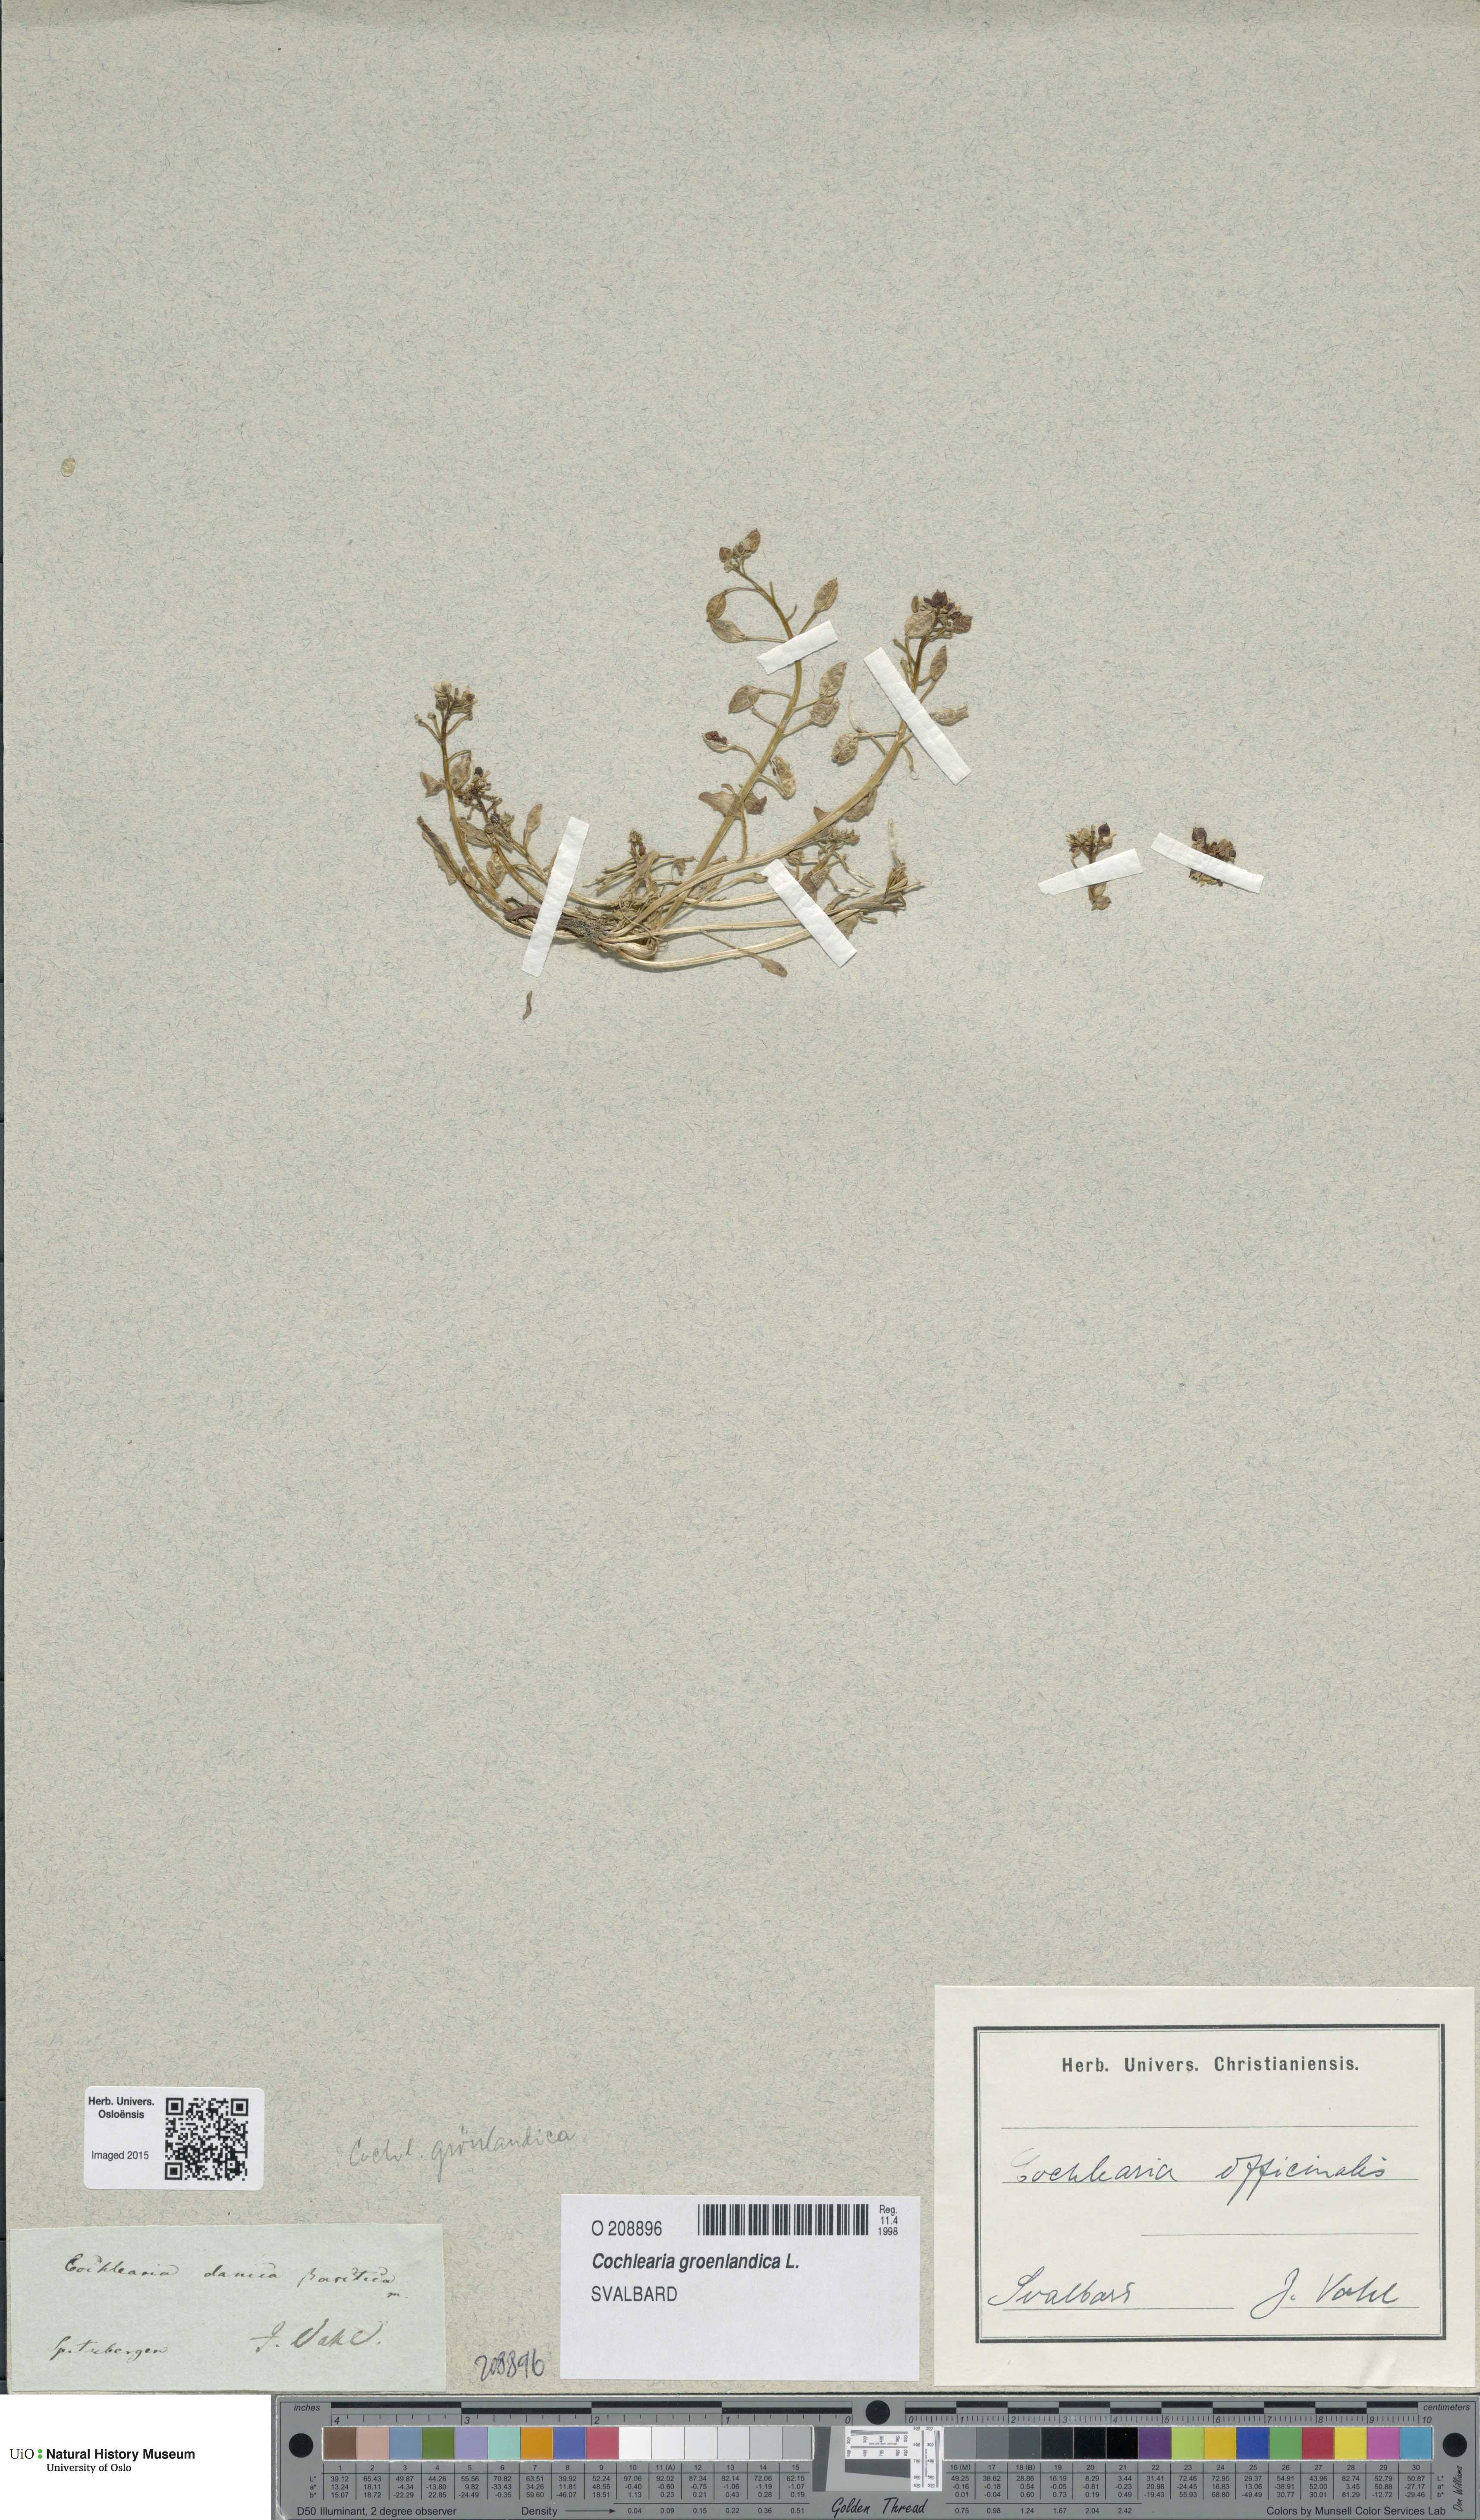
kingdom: Plantae
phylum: Tracheophyta
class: Magnoliopsida
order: Brassicales
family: Brassicaceae
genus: Cochlearia
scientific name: Cochlearia groenlandica
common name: Danish scurvygrass
